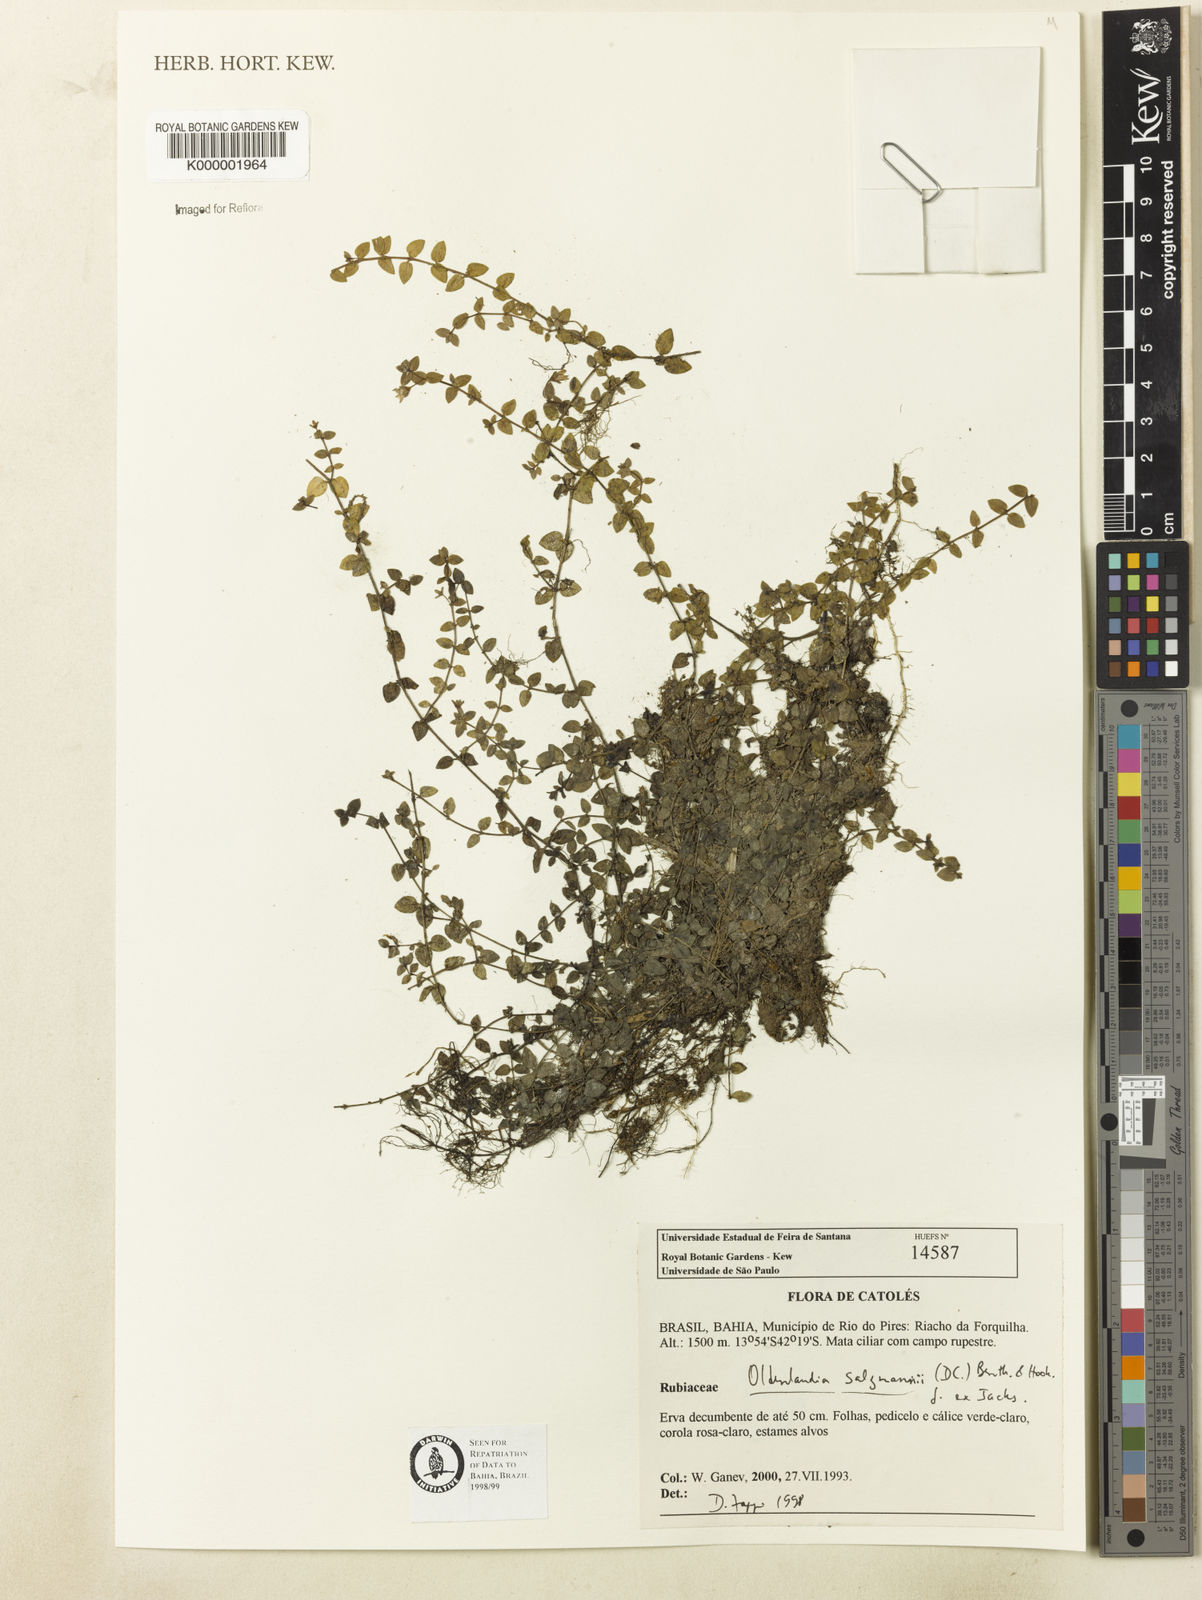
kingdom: Plantae
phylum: Tracheophyta
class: Magnoliopsida
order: Gentianales
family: Rubiaceae
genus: Oldenlandia
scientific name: Oldenlandia salzmannii
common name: Salzmann's mille graines
